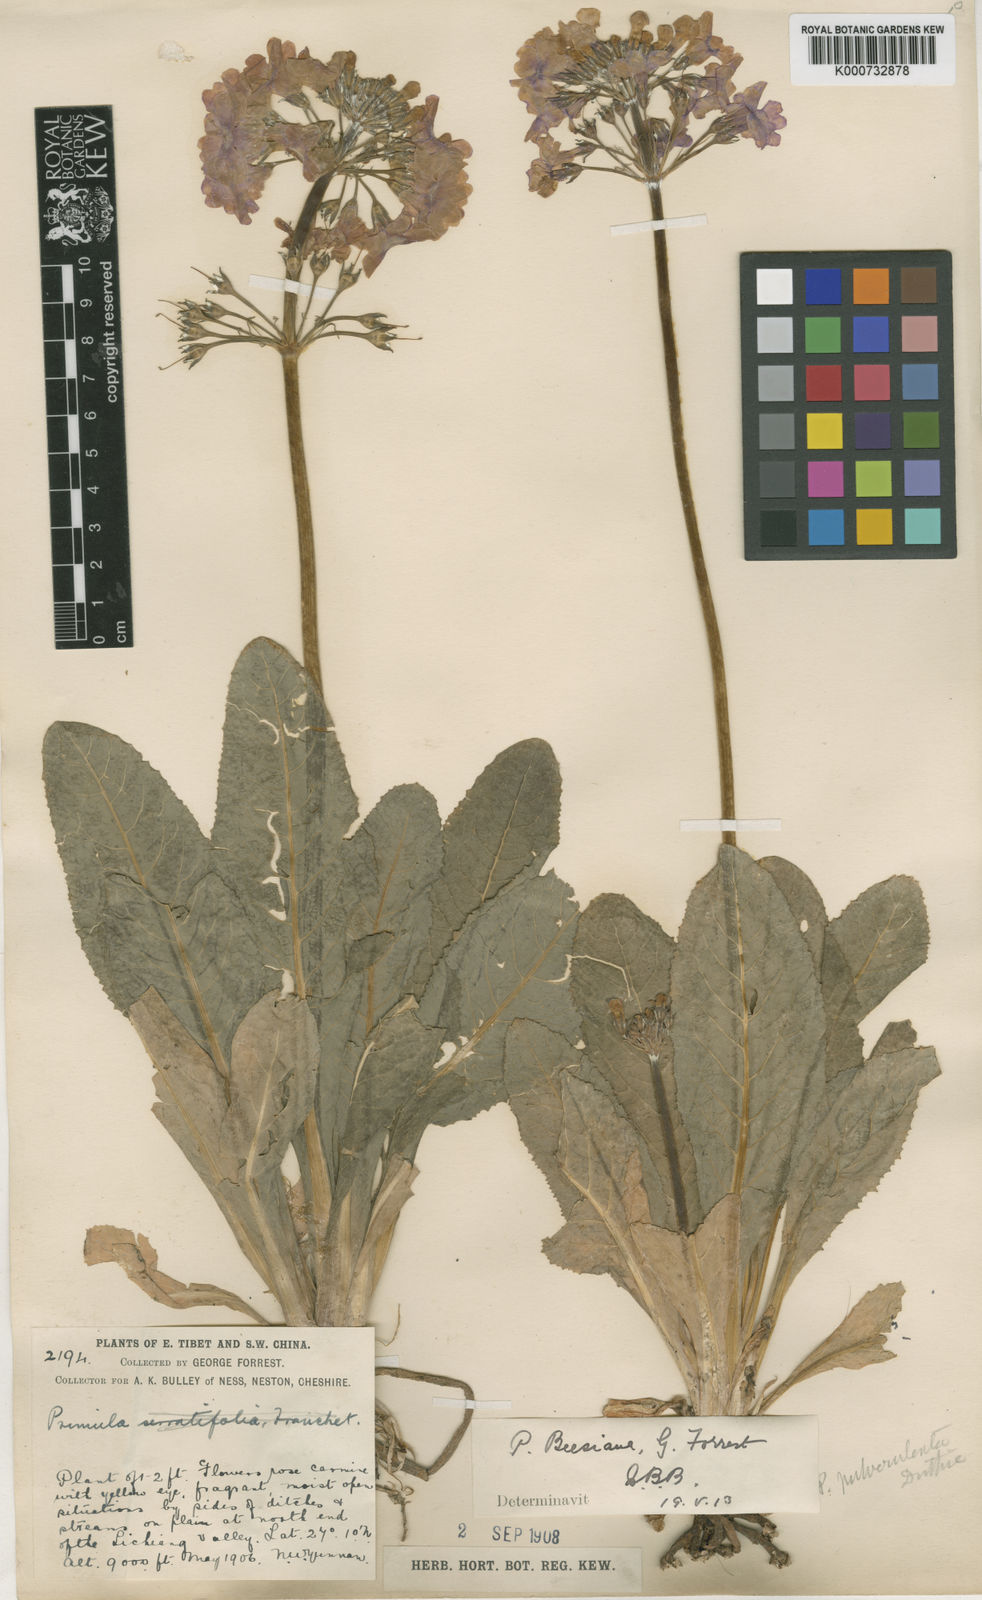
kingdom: Plantae
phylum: Tracheophyta
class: Magnoliopsida
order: Ericales
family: Primulaceae
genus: Primula
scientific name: Primula bulleyana
